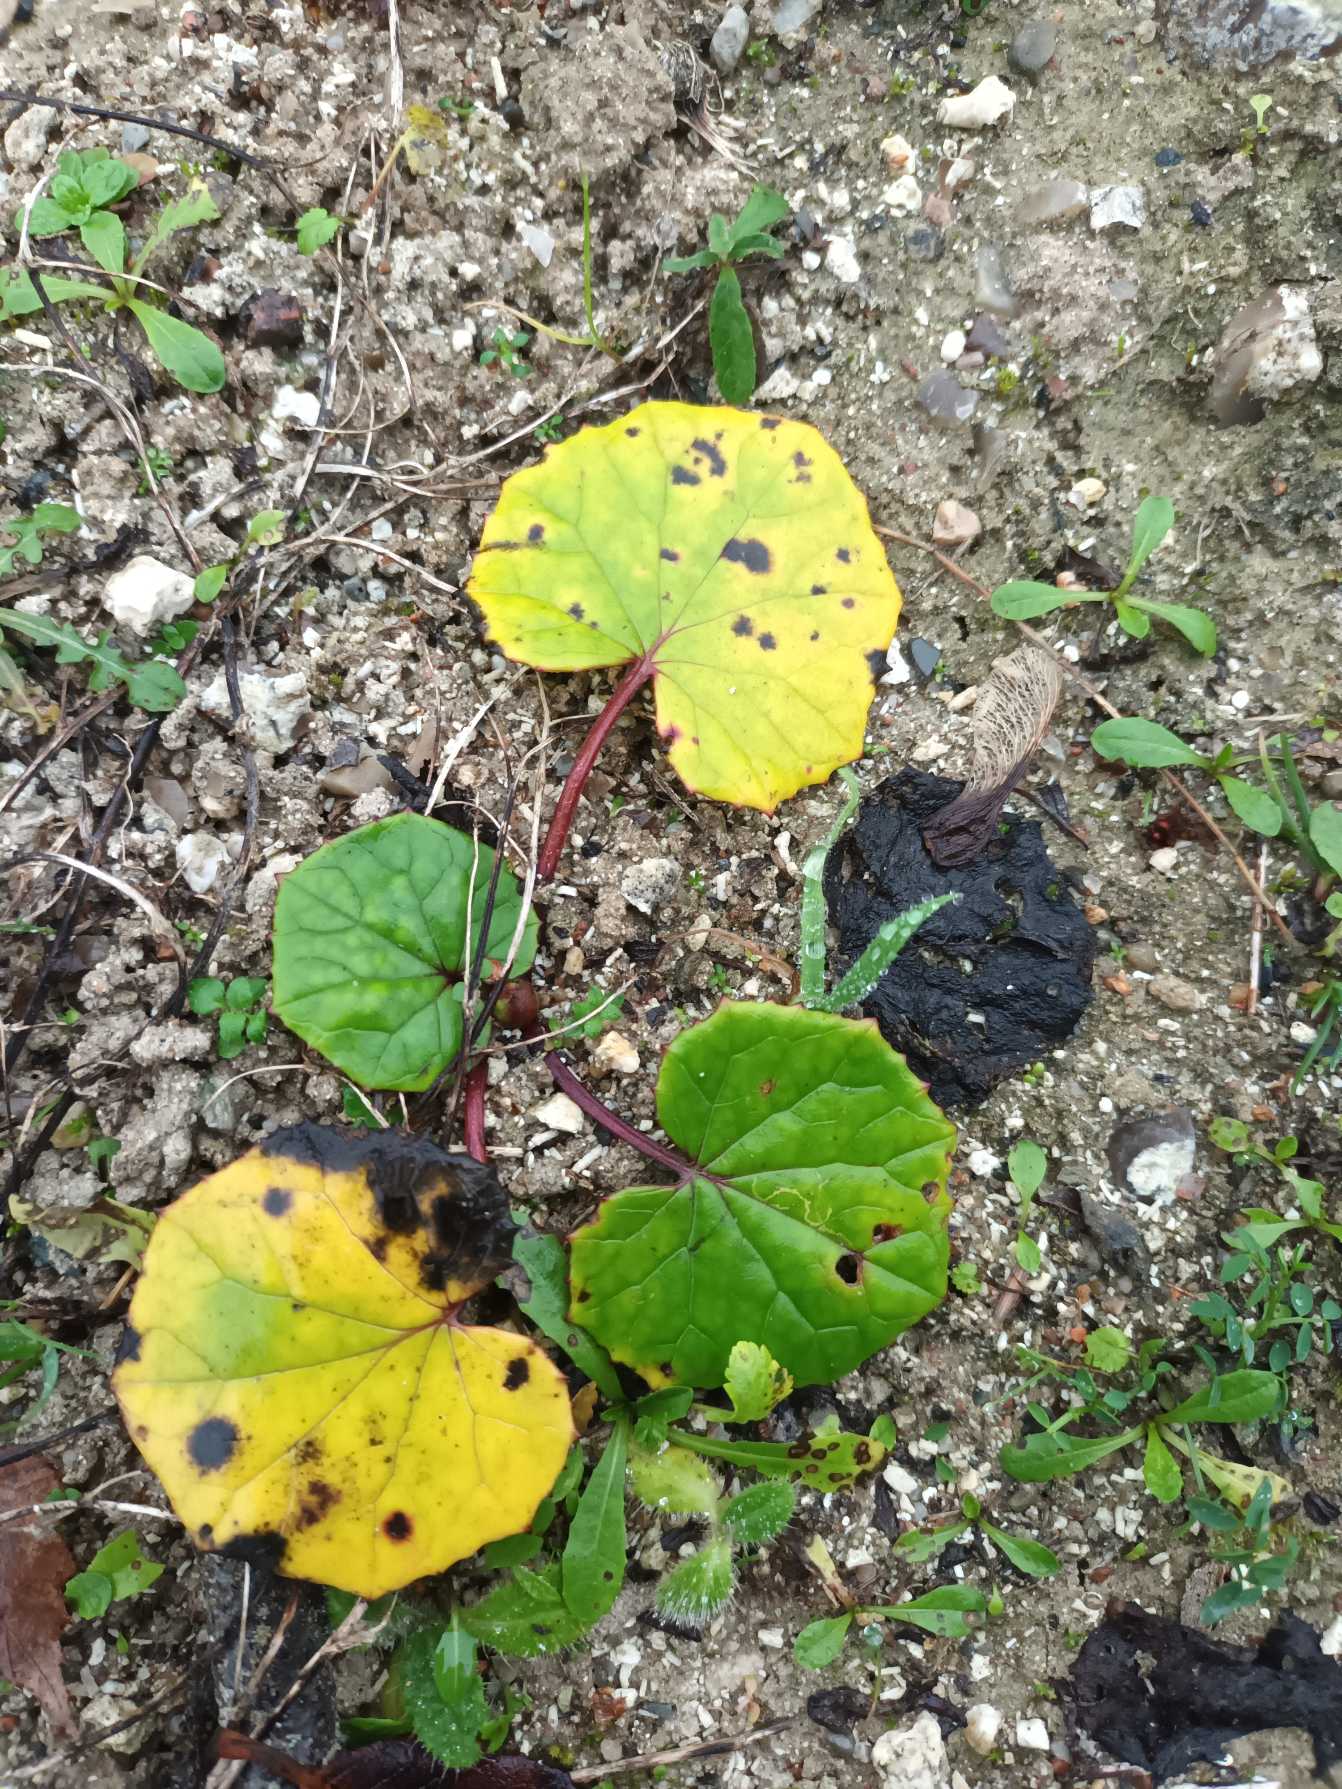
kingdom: Plantae
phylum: Tracheophyta
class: Magnoliopsida
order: Asterales
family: Asteraceae
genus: Tussilago
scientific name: Tussilago farfara
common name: Følfod
